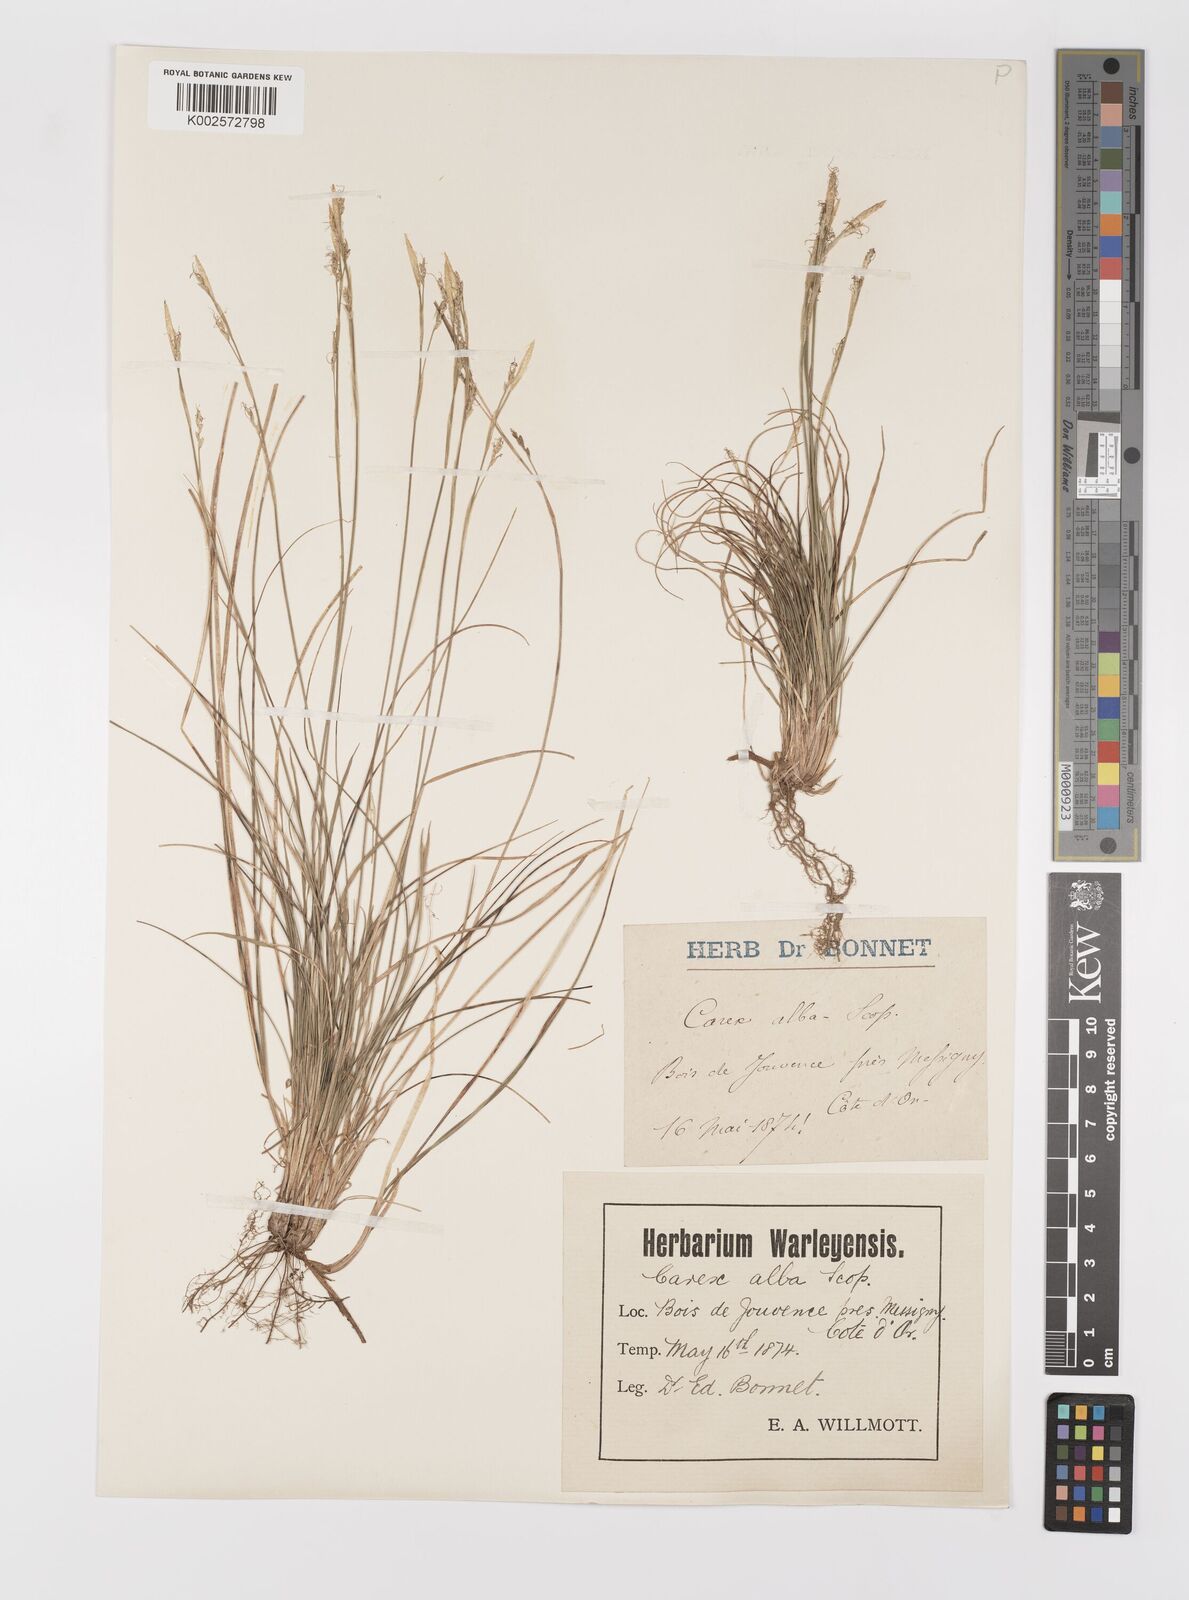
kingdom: Plantae
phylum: Tracheophyta
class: Liliopsida
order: Poales
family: Cyperaceae
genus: Carex
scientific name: Carex alba
